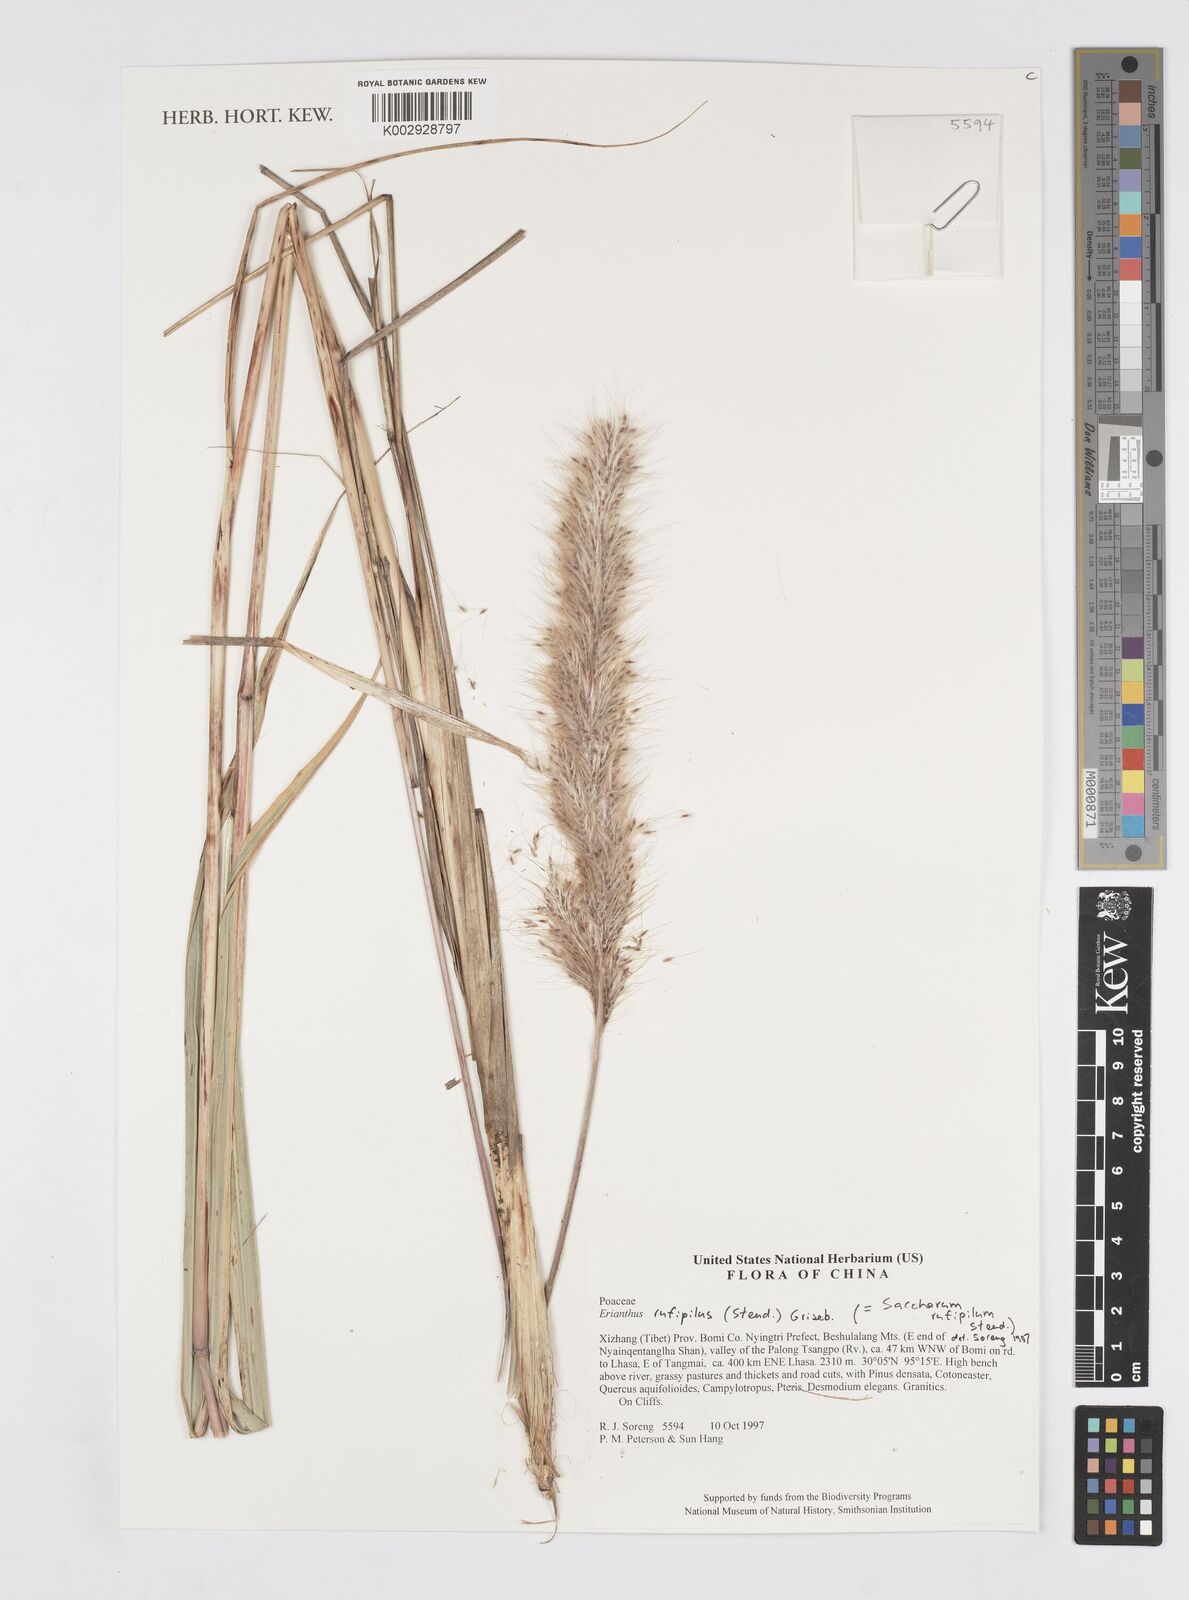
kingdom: Plantae
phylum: Tracheophyta
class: Liliopsida
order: Poales
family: Poaceae
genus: Tripidium
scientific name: Tripidium rufipilum
